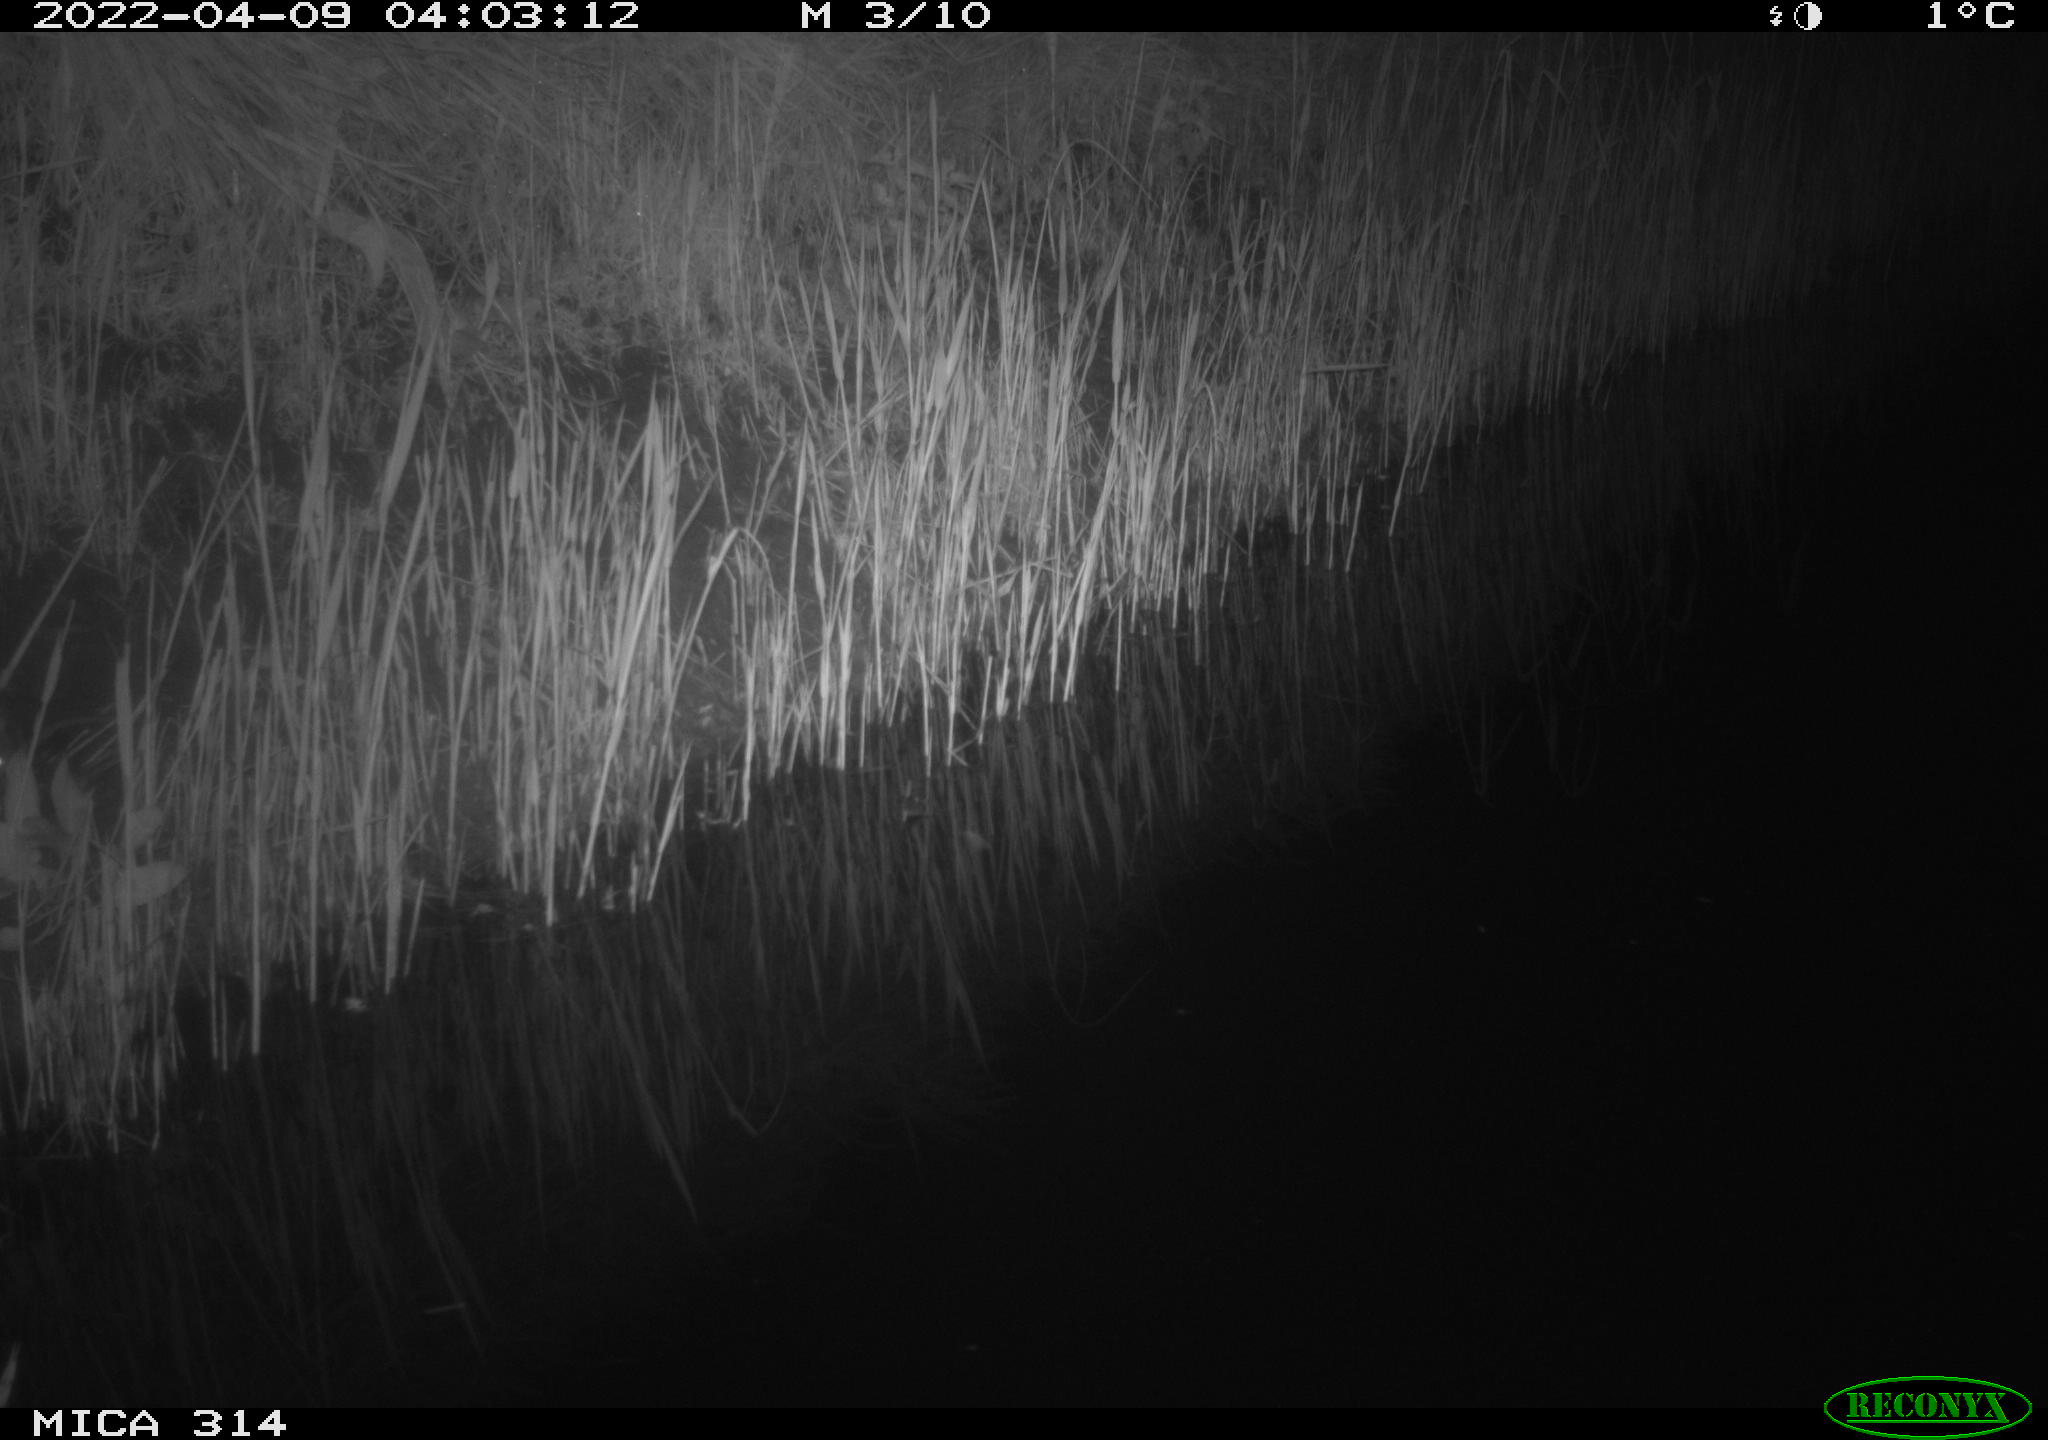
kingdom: Animalia
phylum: Chordata
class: Mammalia
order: Rodentia
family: Cricetidae
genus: Ondatra
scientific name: Ondatra zibethicus
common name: Muskrat
